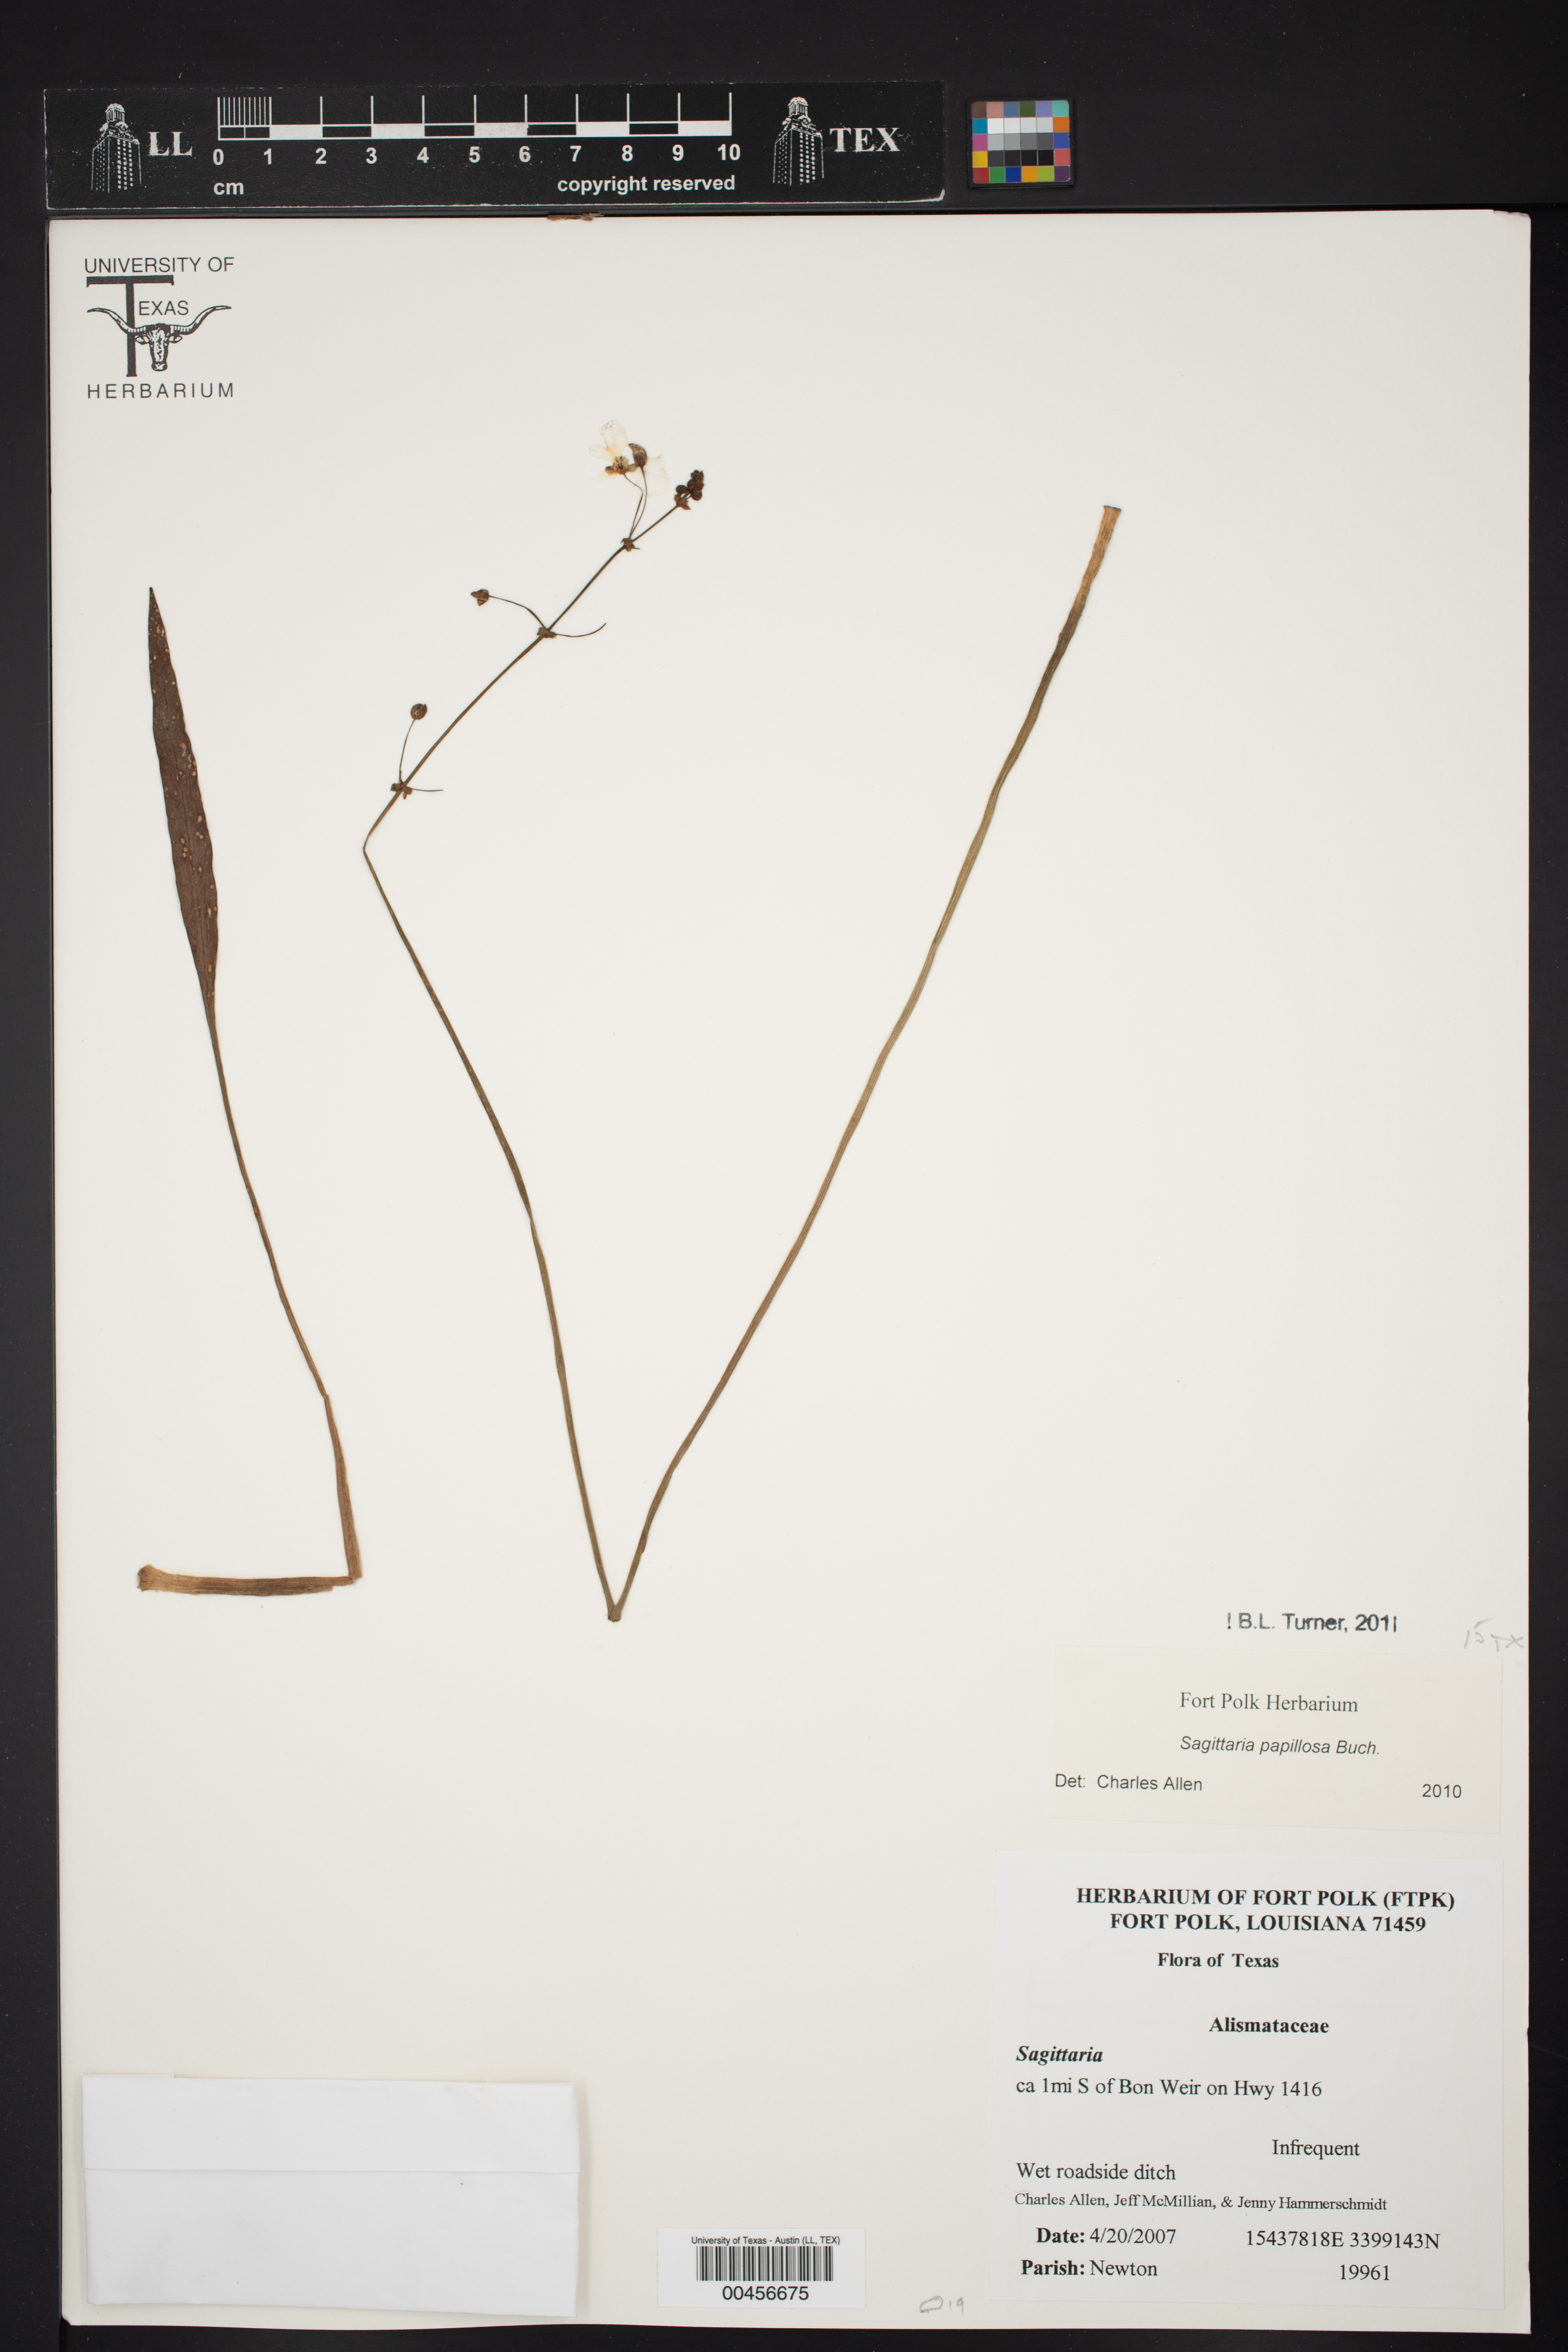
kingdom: Plantae
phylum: Tracheophyta
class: Liliopsida
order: Alismatales
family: Alismataceae
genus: Sagittaria
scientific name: Sagittaria papillosa
